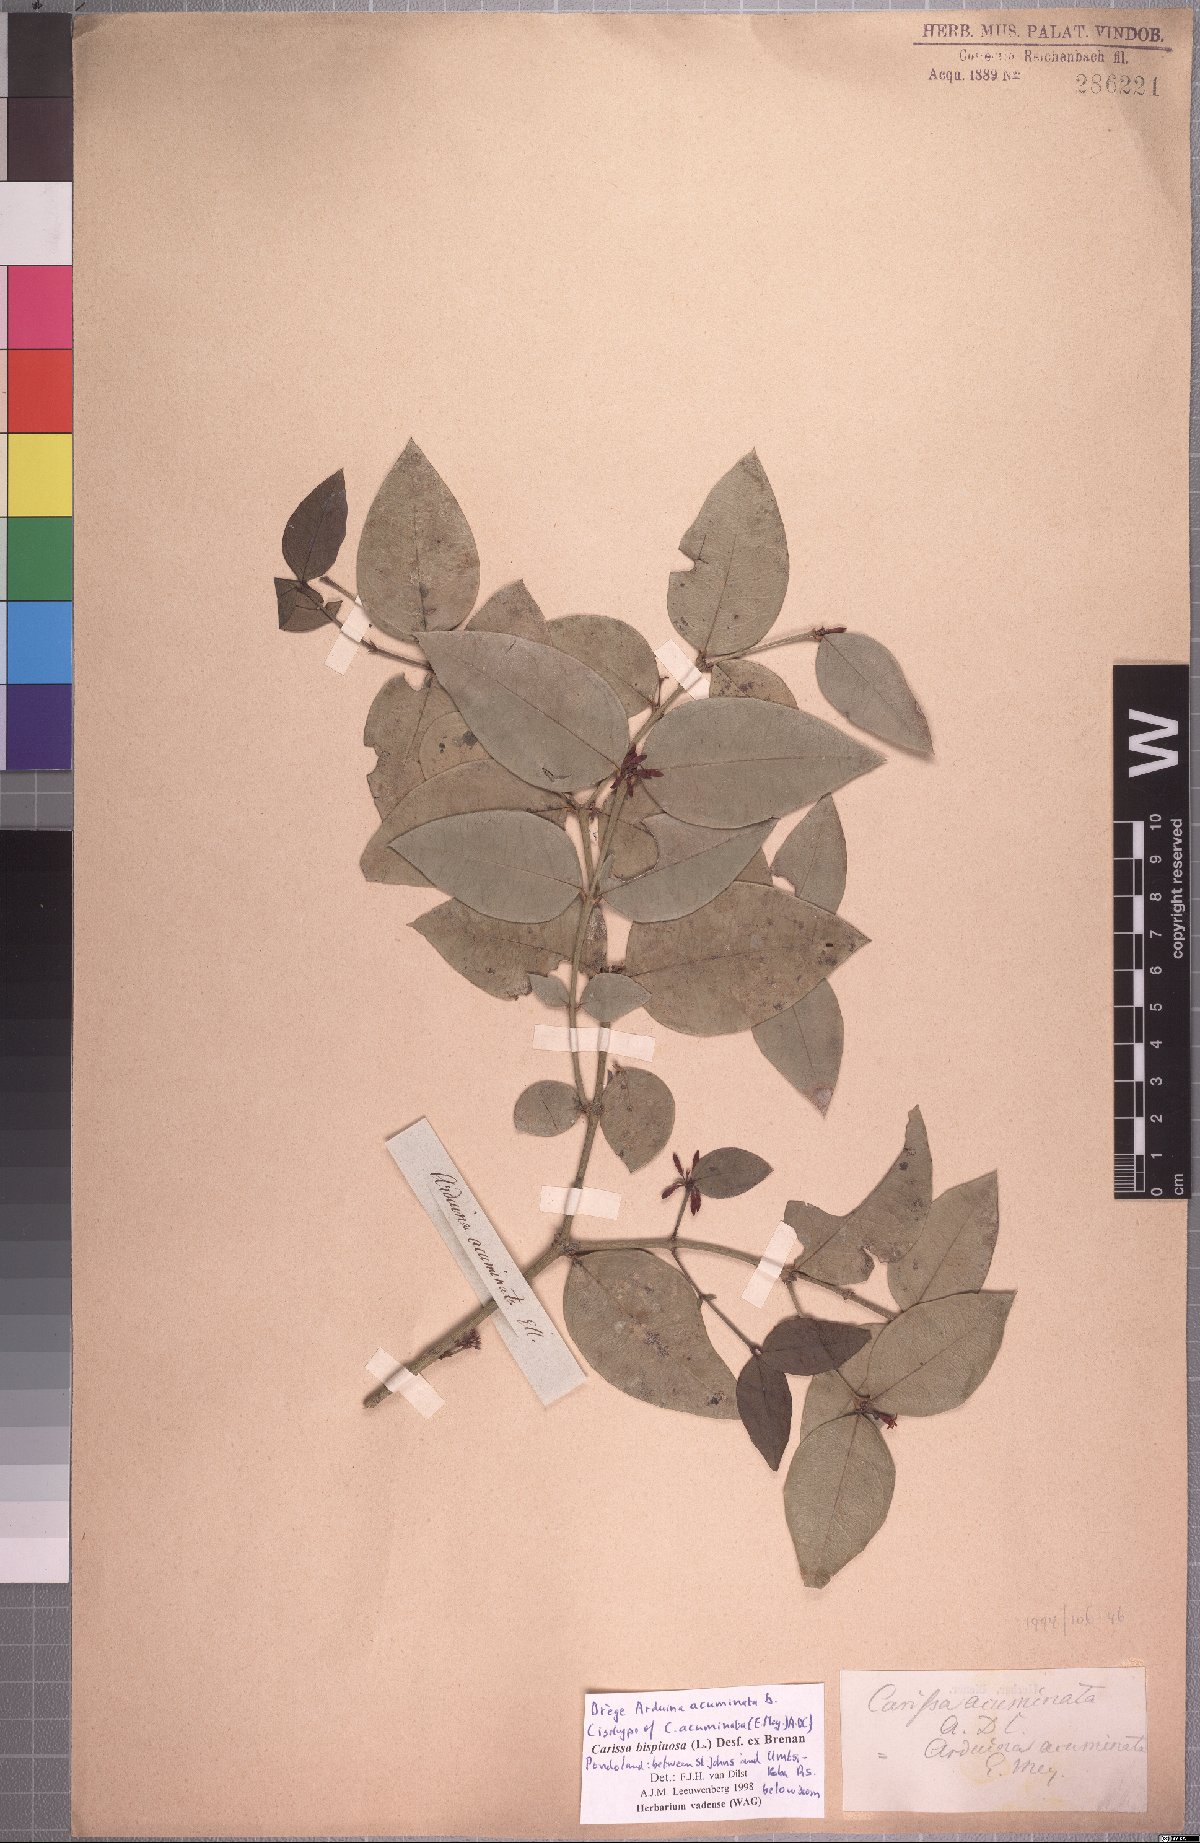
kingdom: Plantae
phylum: Tracheophyta
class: Magnoliopsida
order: Gentianales
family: Apocynaceae
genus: Carissa
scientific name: Carissa bispinosa
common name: Forest num-num
